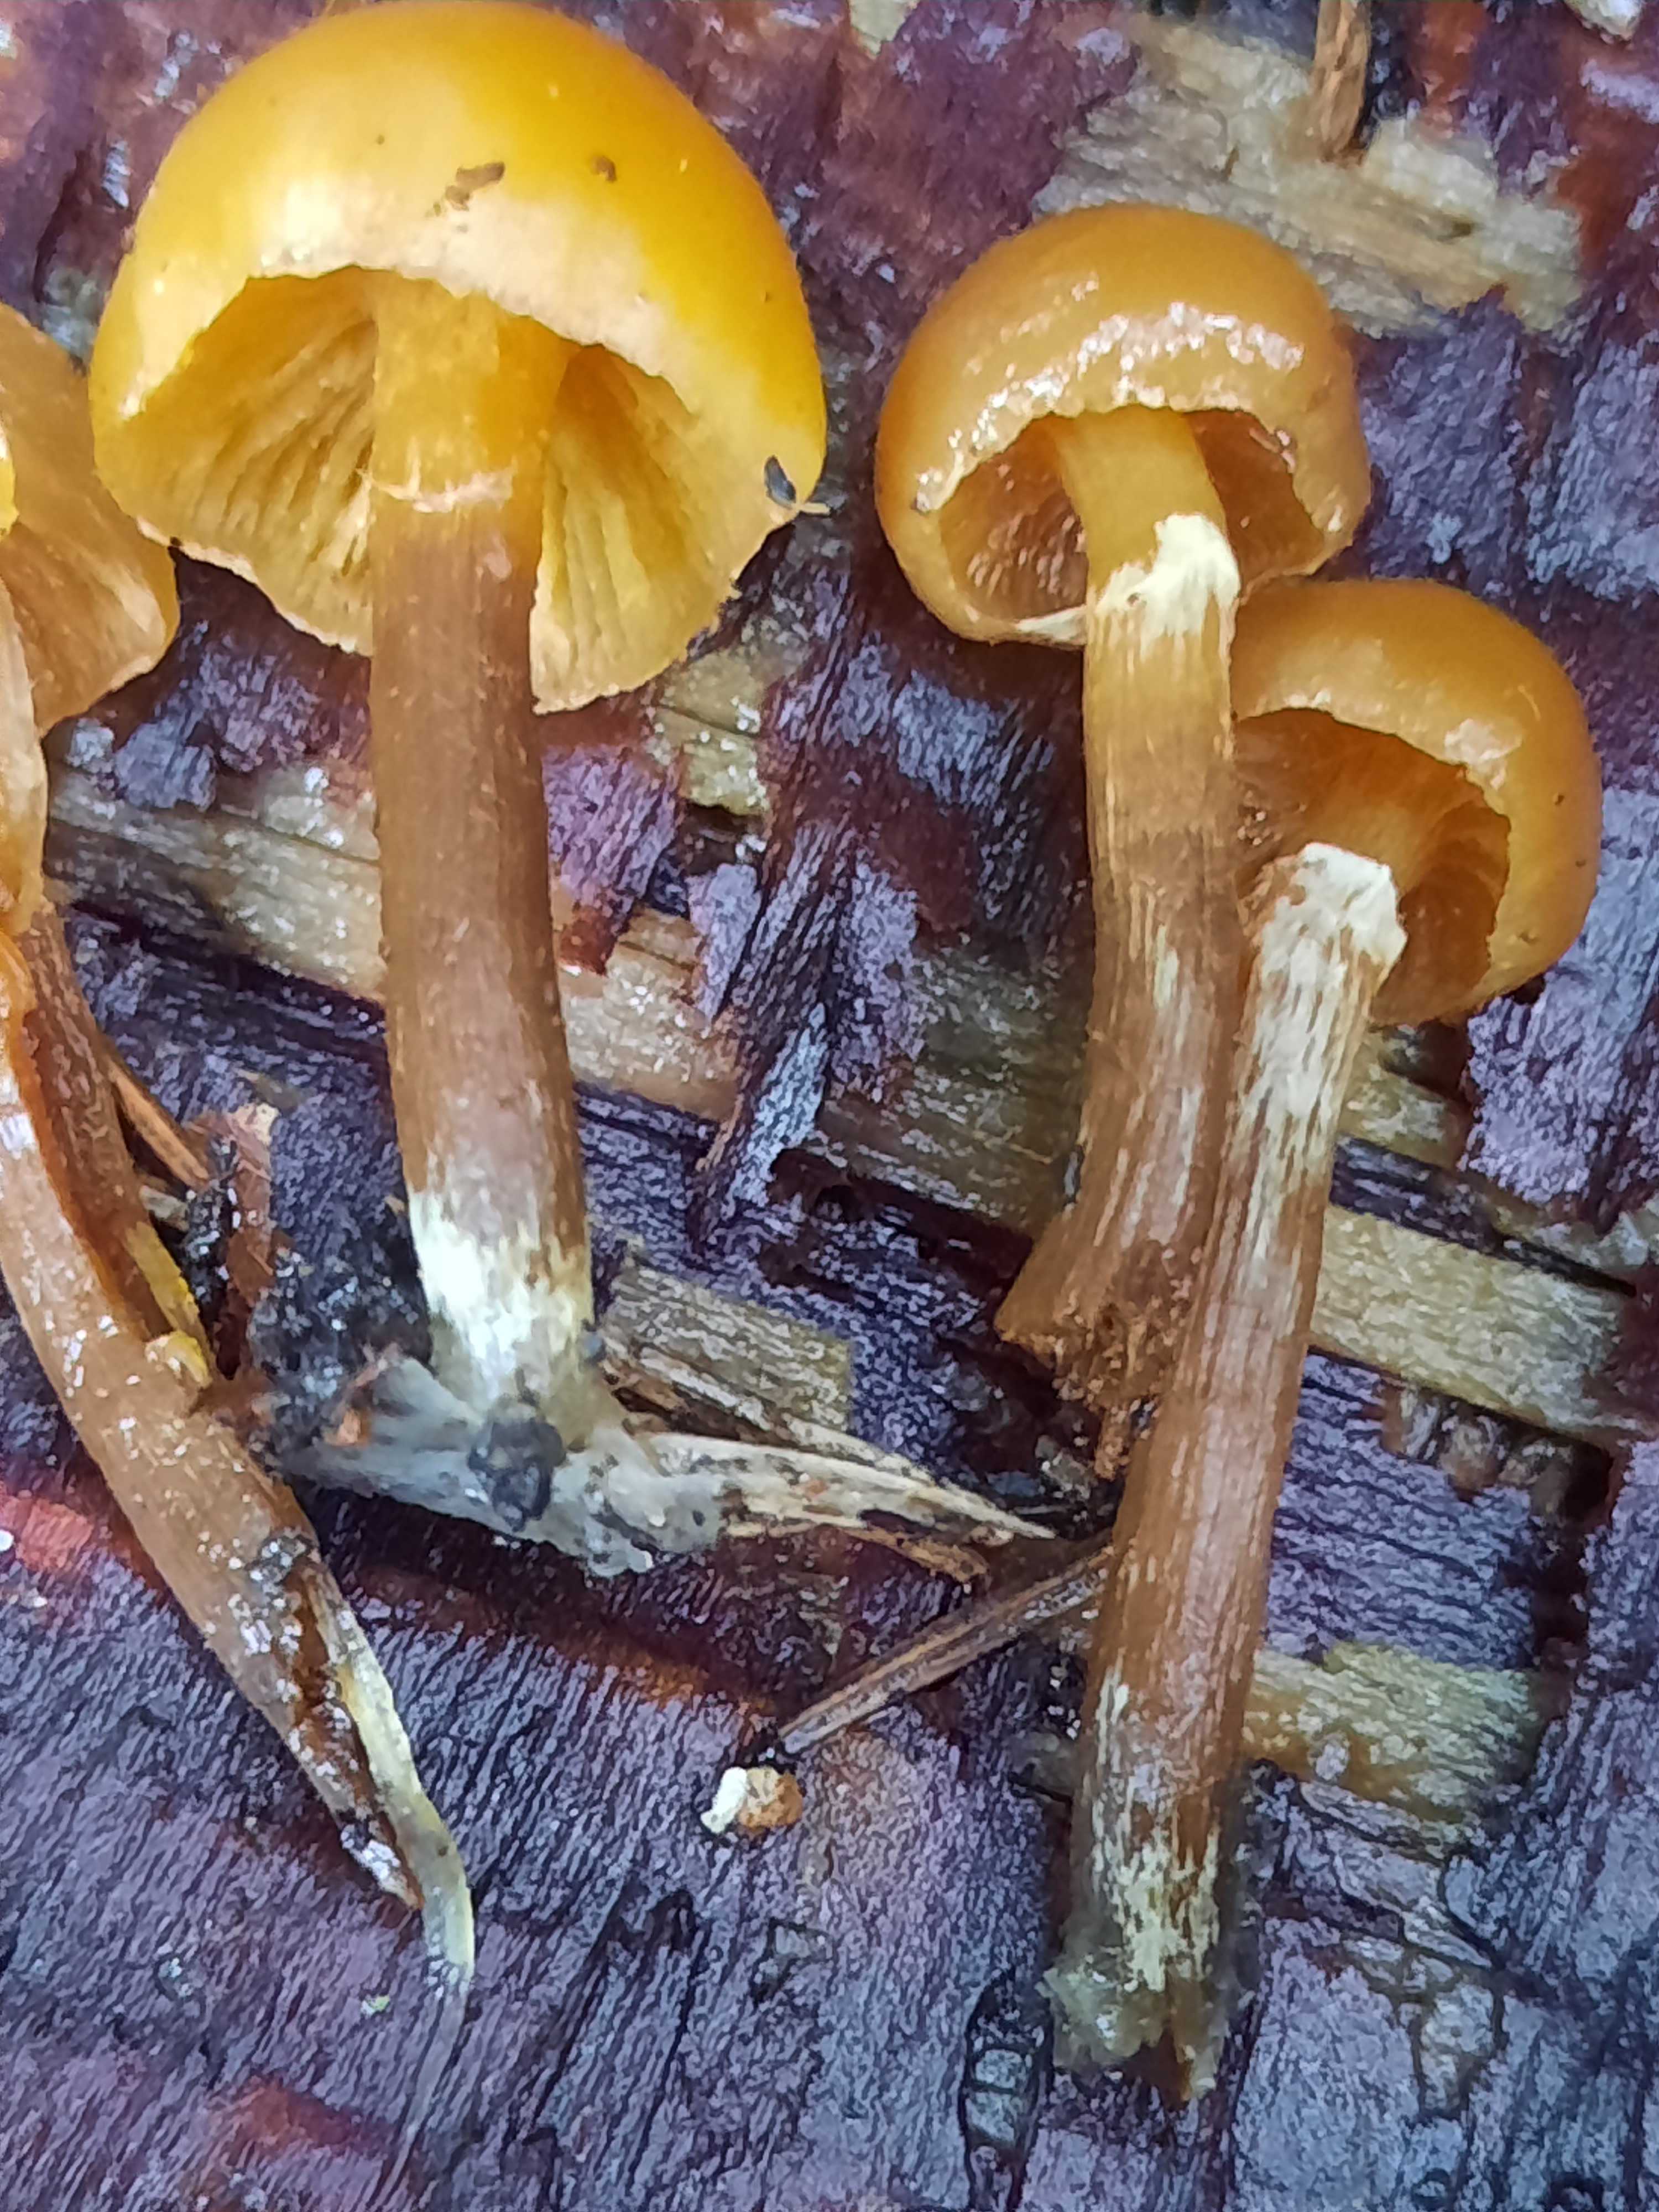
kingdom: Fungi
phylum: Basidiomycota
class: Agaricomycetes
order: Agaricales
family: Hymenogastraceae
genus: Galerina
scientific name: Galerina marginata
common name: randbæltet hjelmhat
